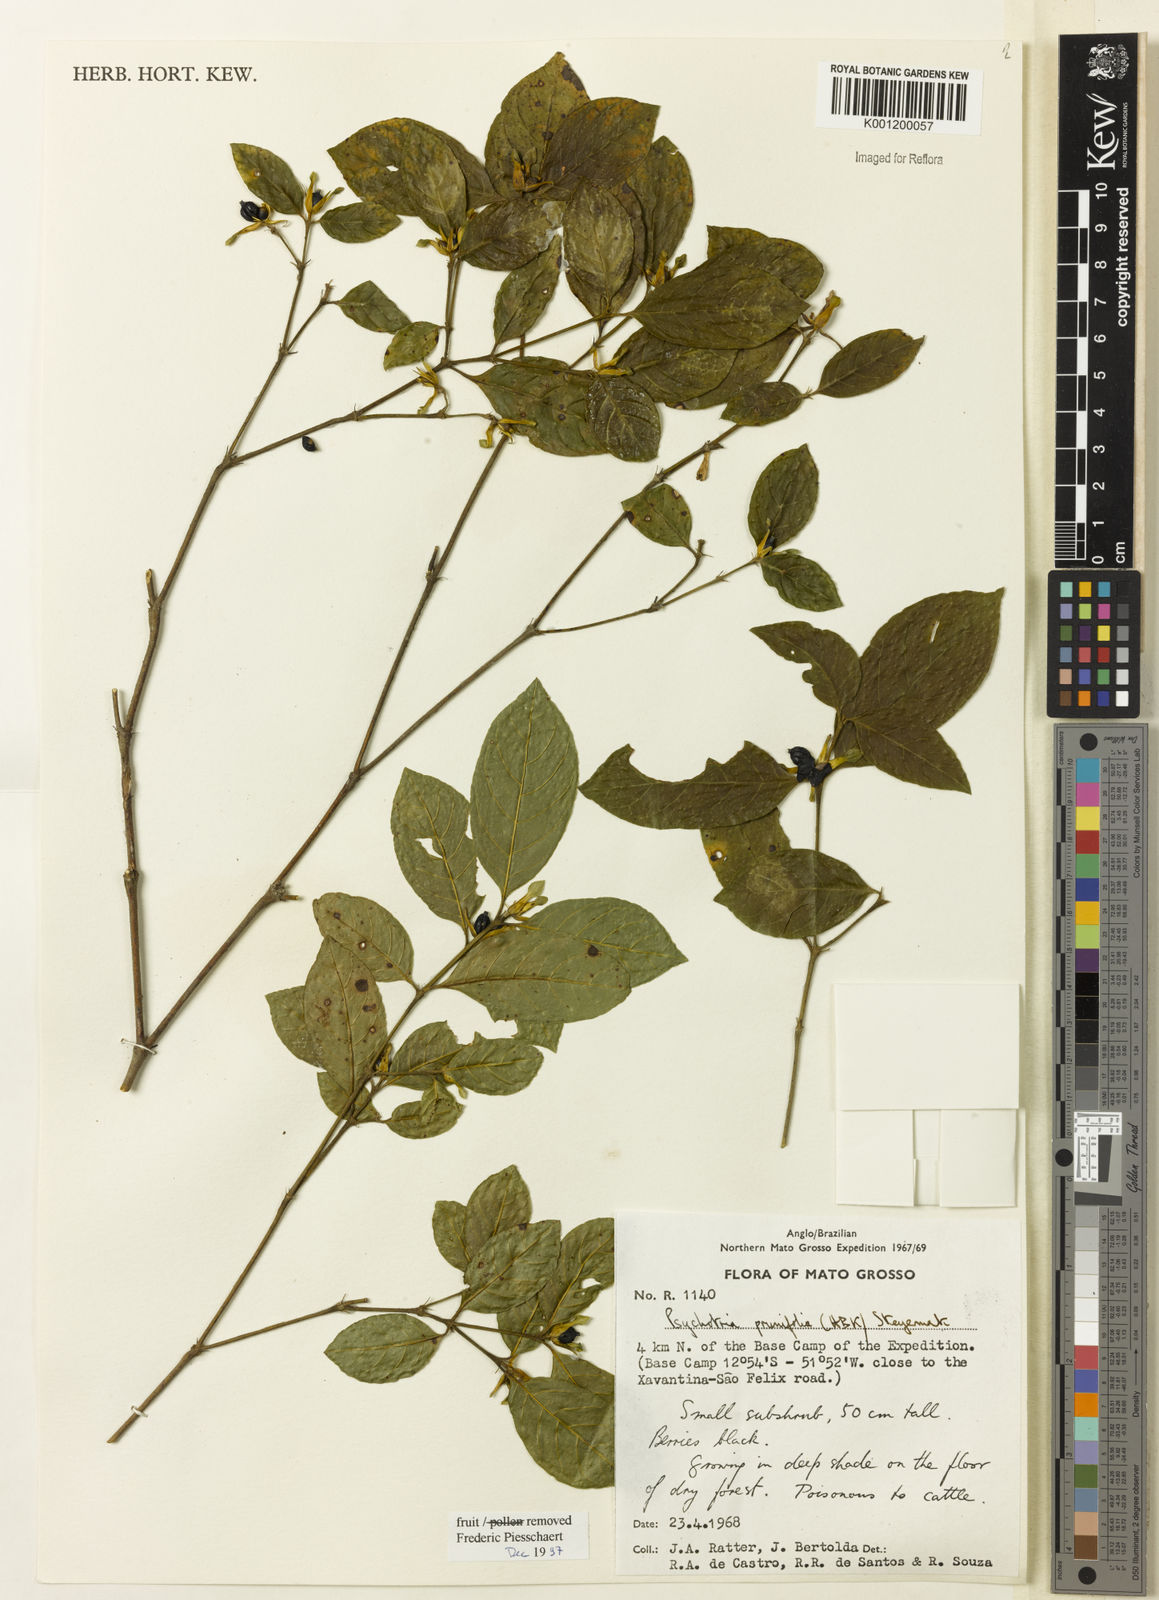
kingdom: Plantae
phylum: Tracheophyta
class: Magnoliopsida
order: Gentianales
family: Rubiaceae
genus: Palicourea
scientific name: Palicourea prunifolia
